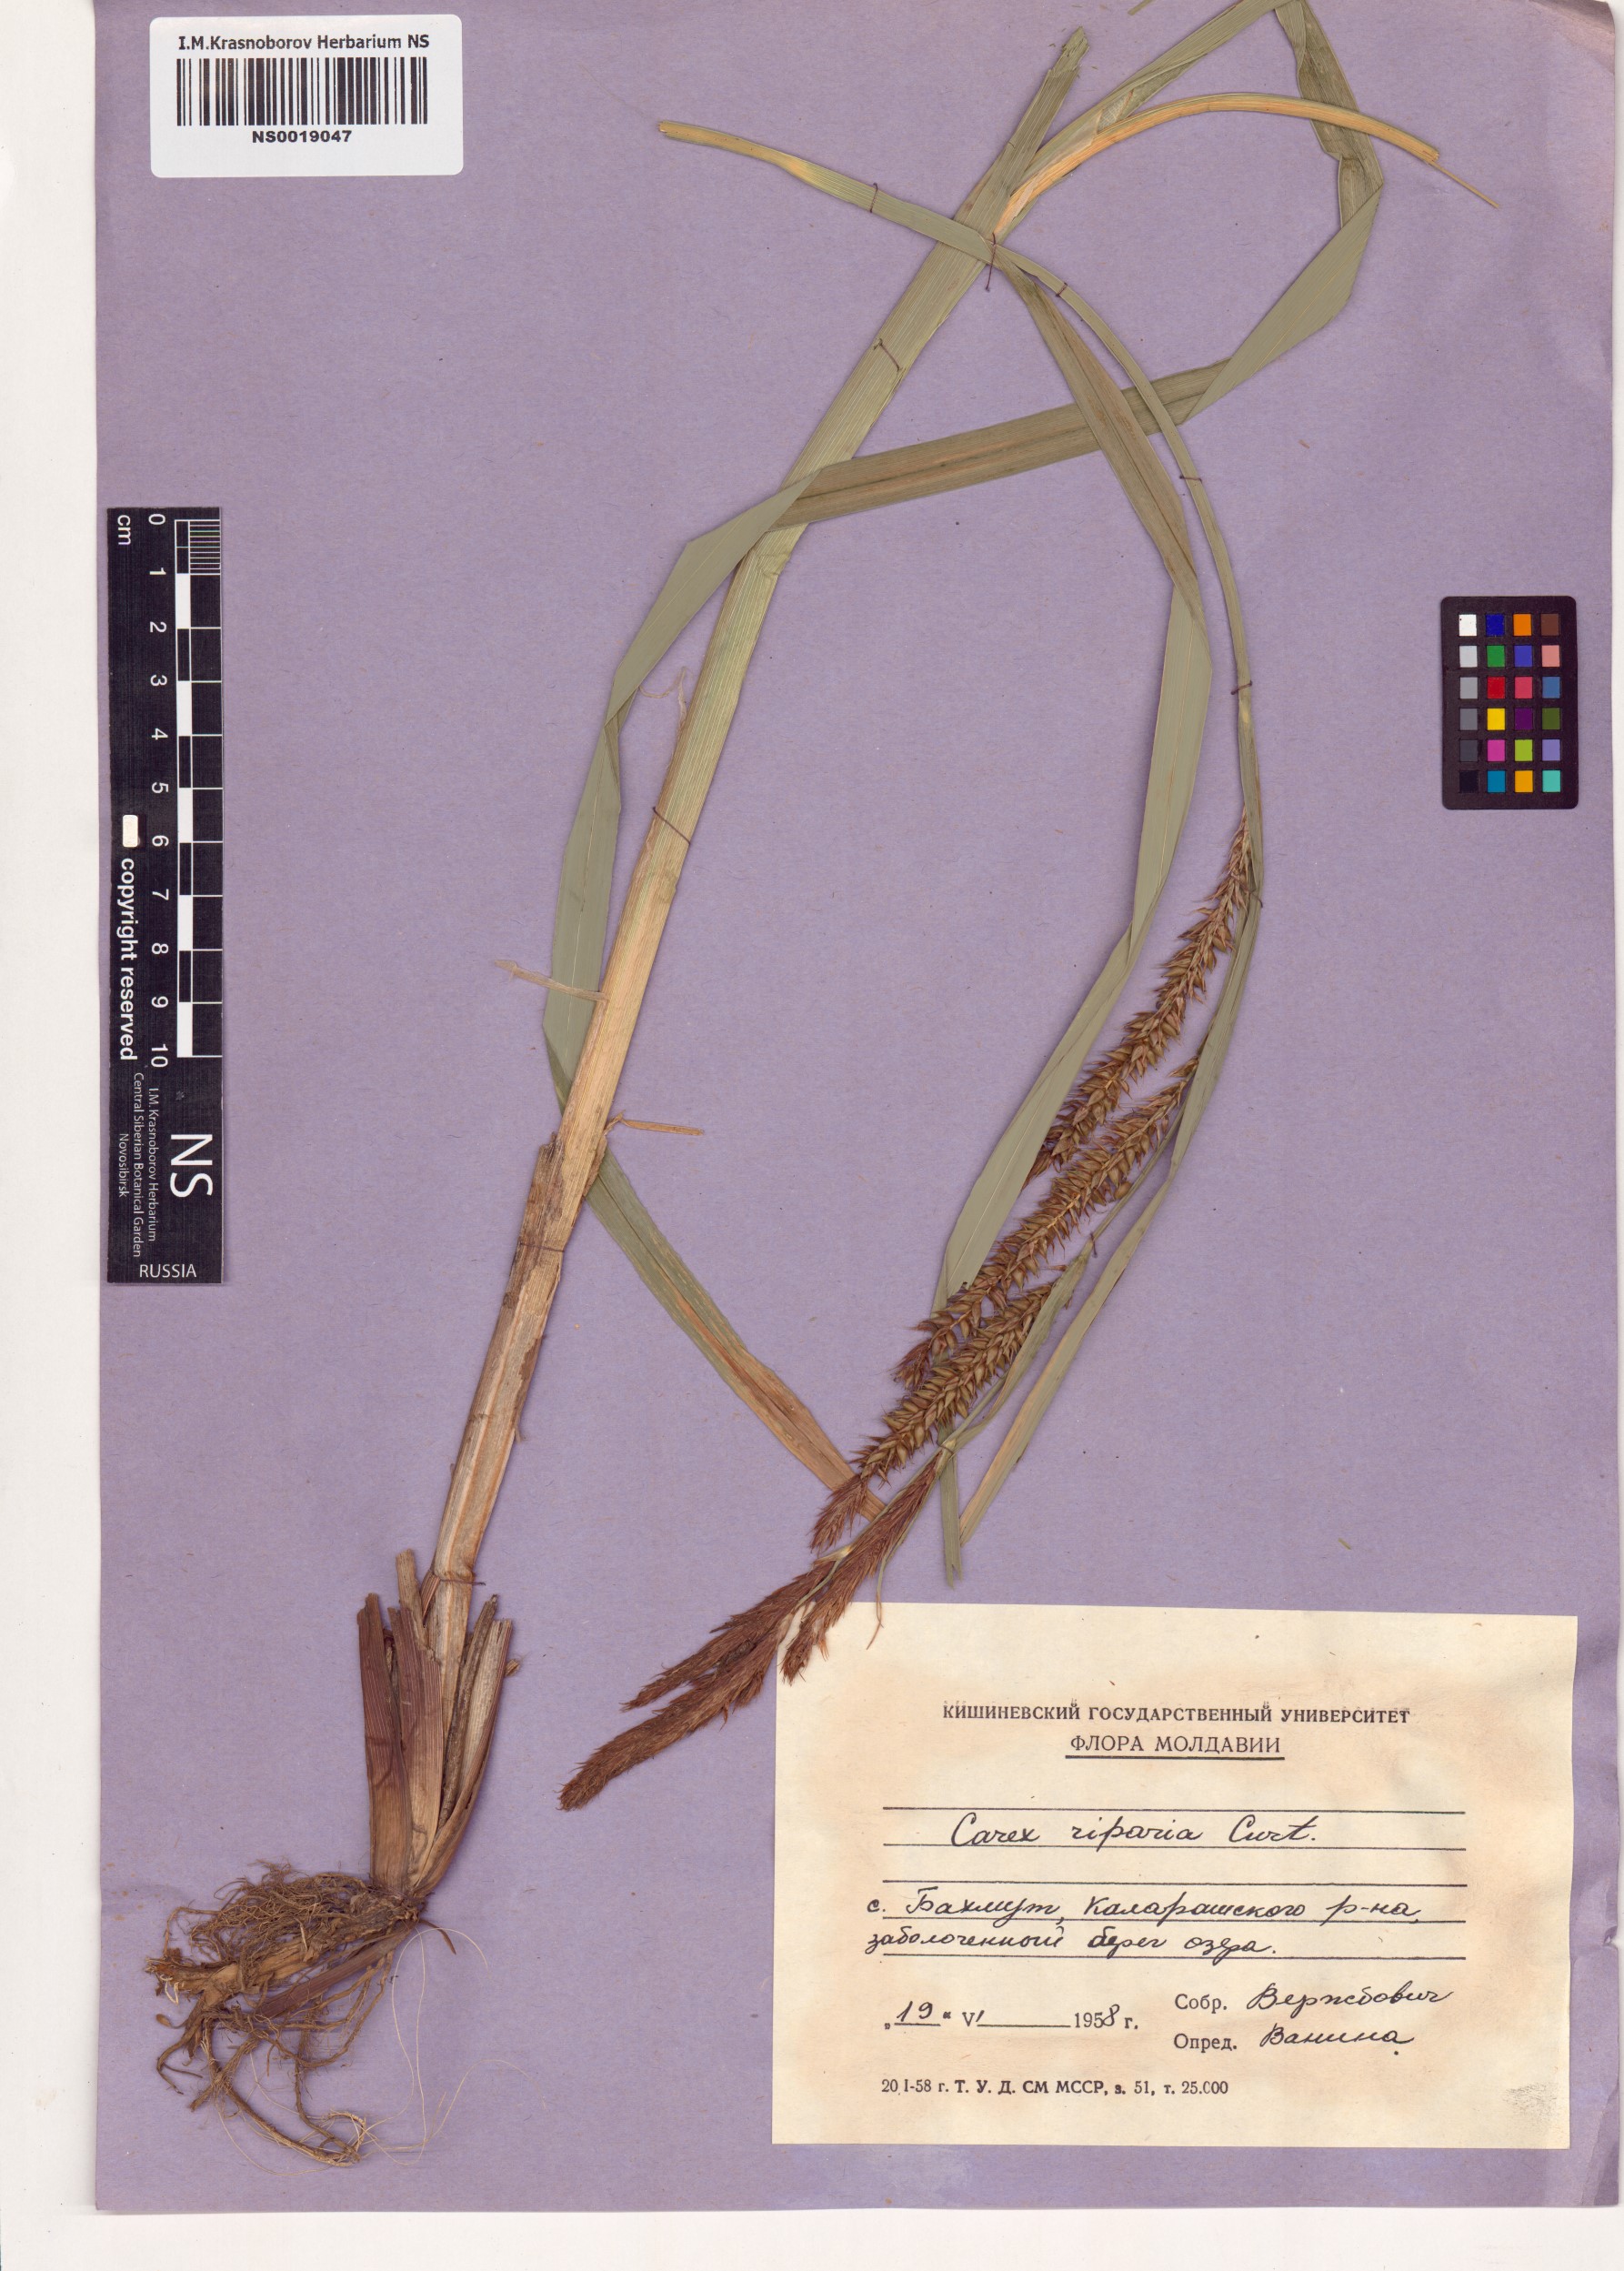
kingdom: Plantae
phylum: Tracheophyta
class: Liliopsida
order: Poales
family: Cyperaceae
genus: Carex
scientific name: Carex riparia
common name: Greater pond-sedge
